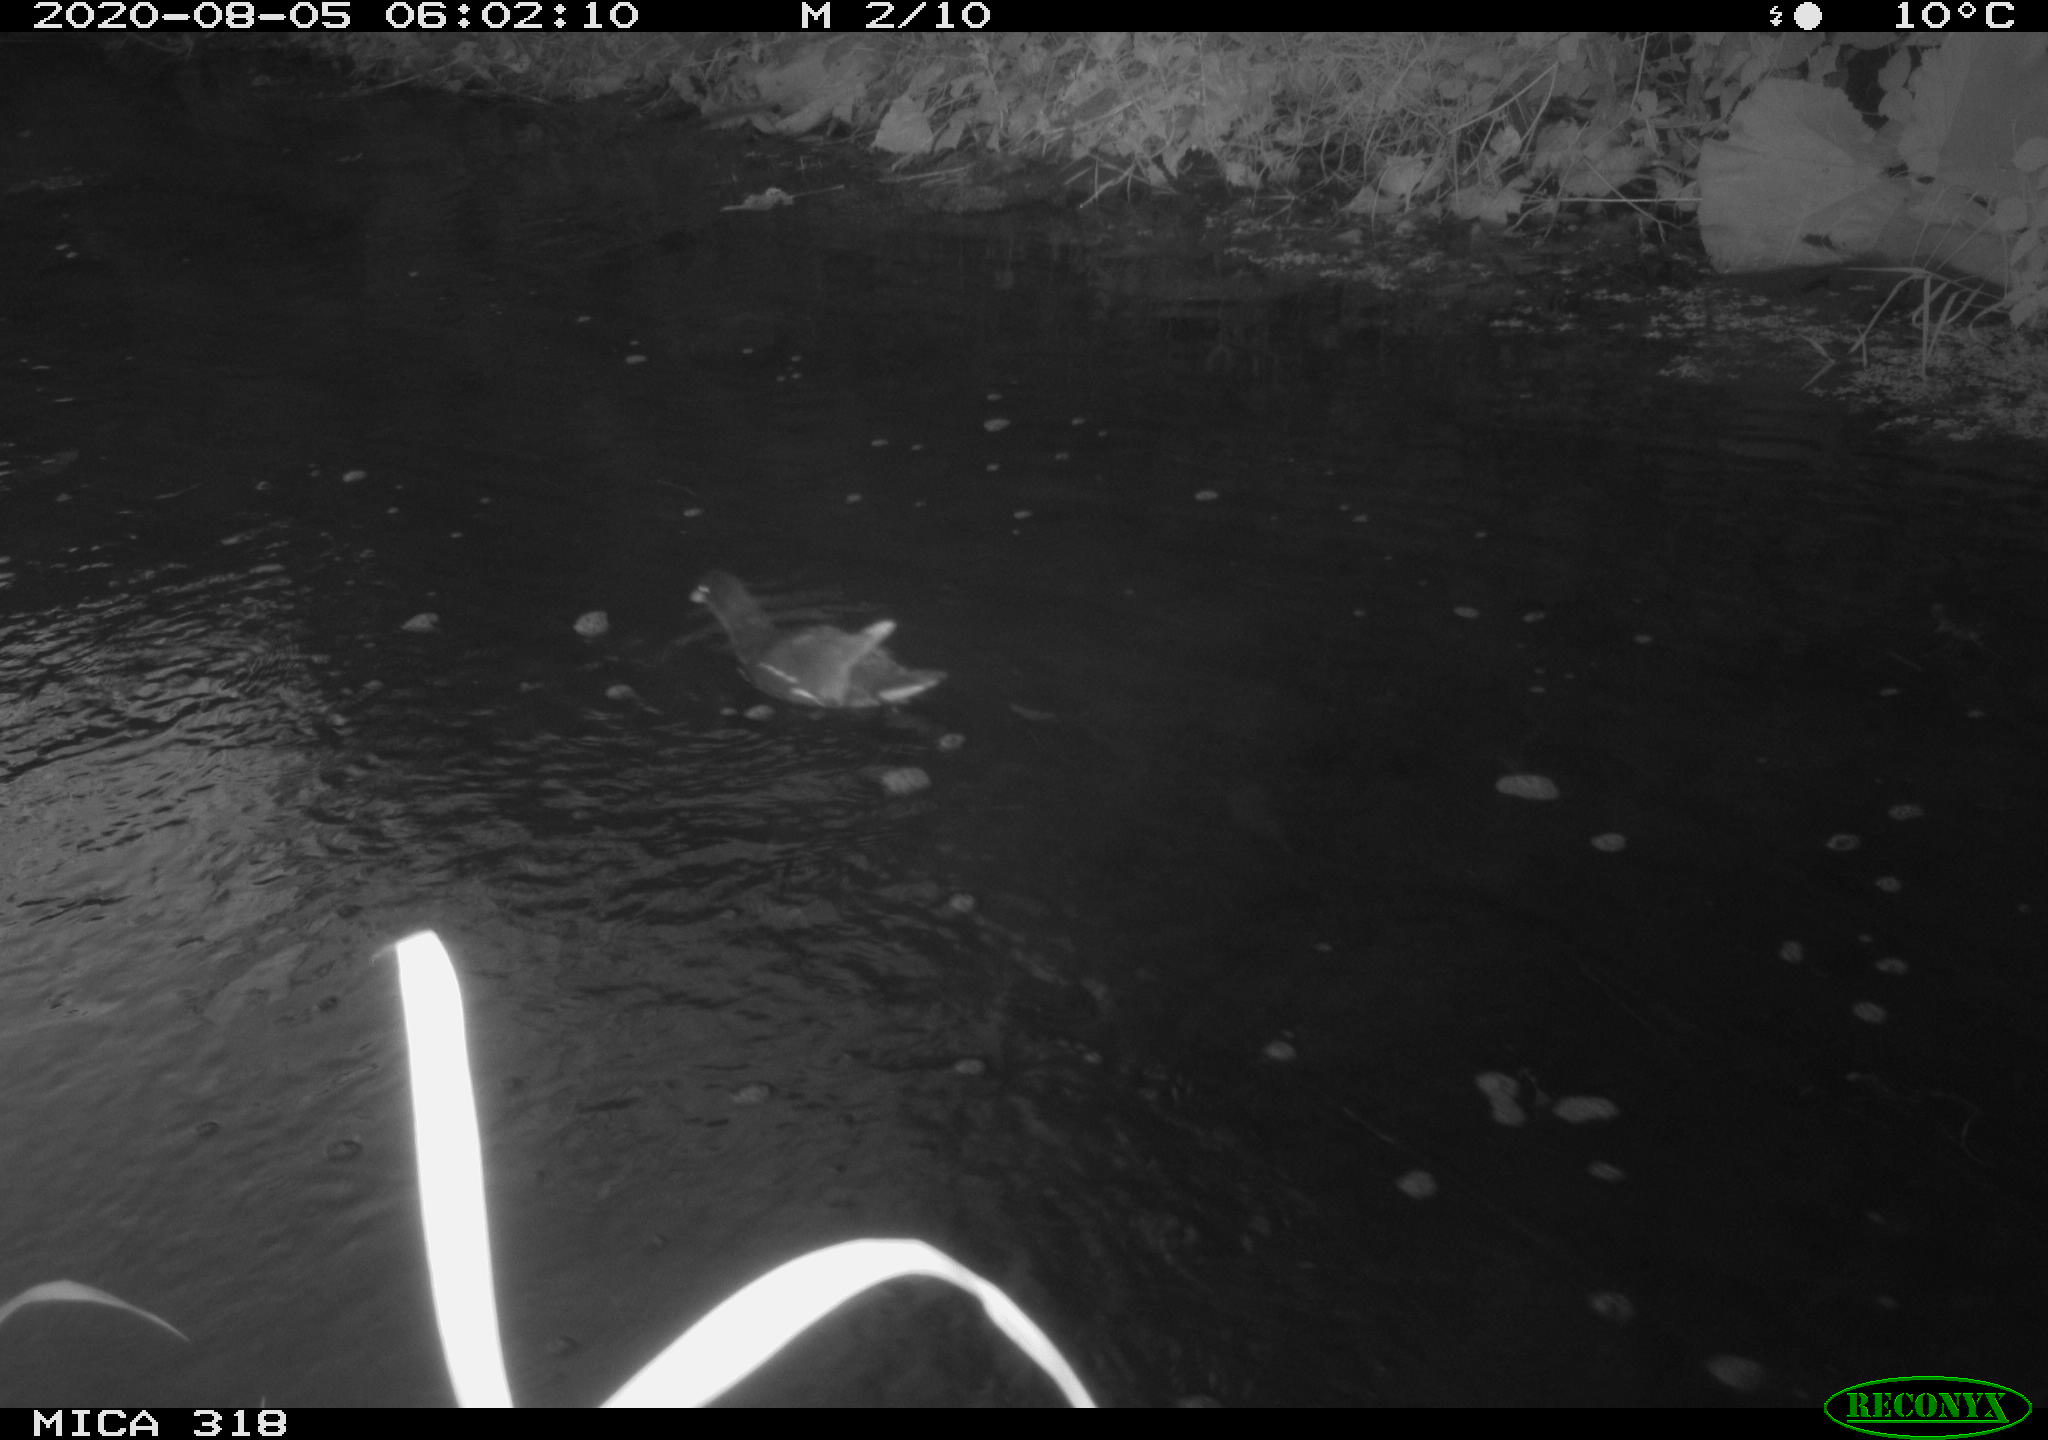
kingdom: Animalia
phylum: Chordata
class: Aves
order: Gruiformes
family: Rallidae
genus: Gallinula
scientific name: Gallinula chloropus
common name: Common moorhen
